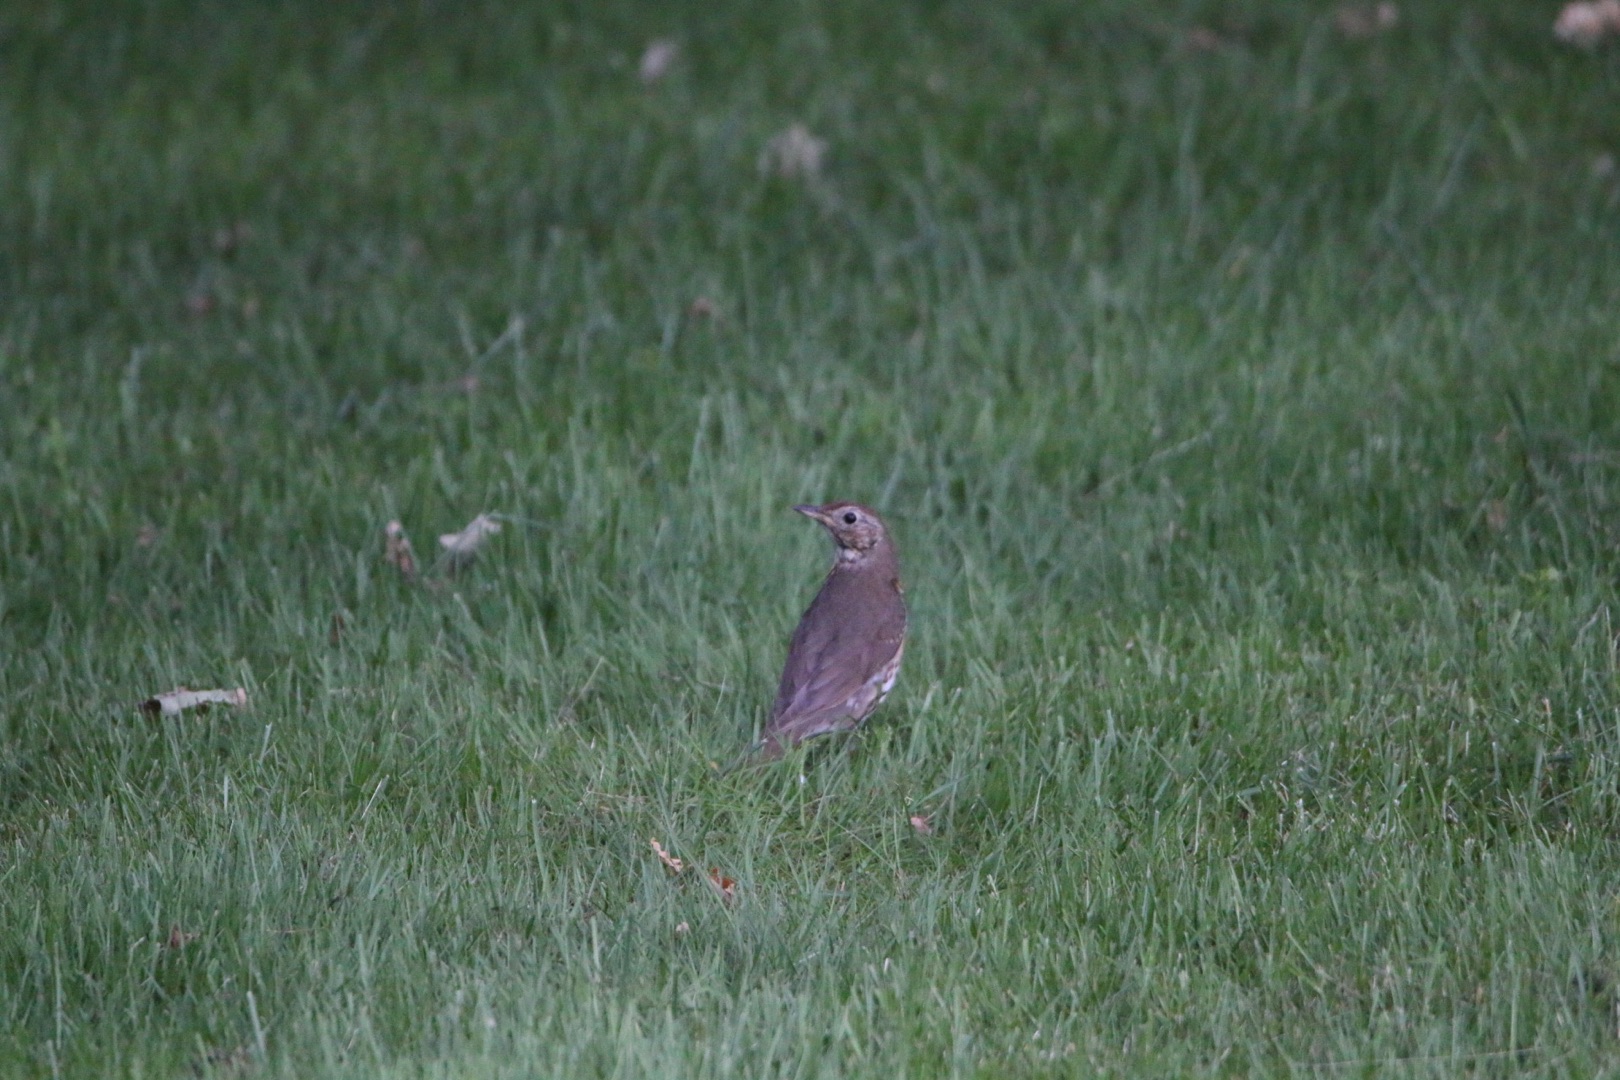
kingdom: Animalia
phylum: Chordata
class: Aves
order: Passeriformes
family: Turdidae
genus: Turdus
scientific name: Turdus philomelos
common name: Sangdrossel
